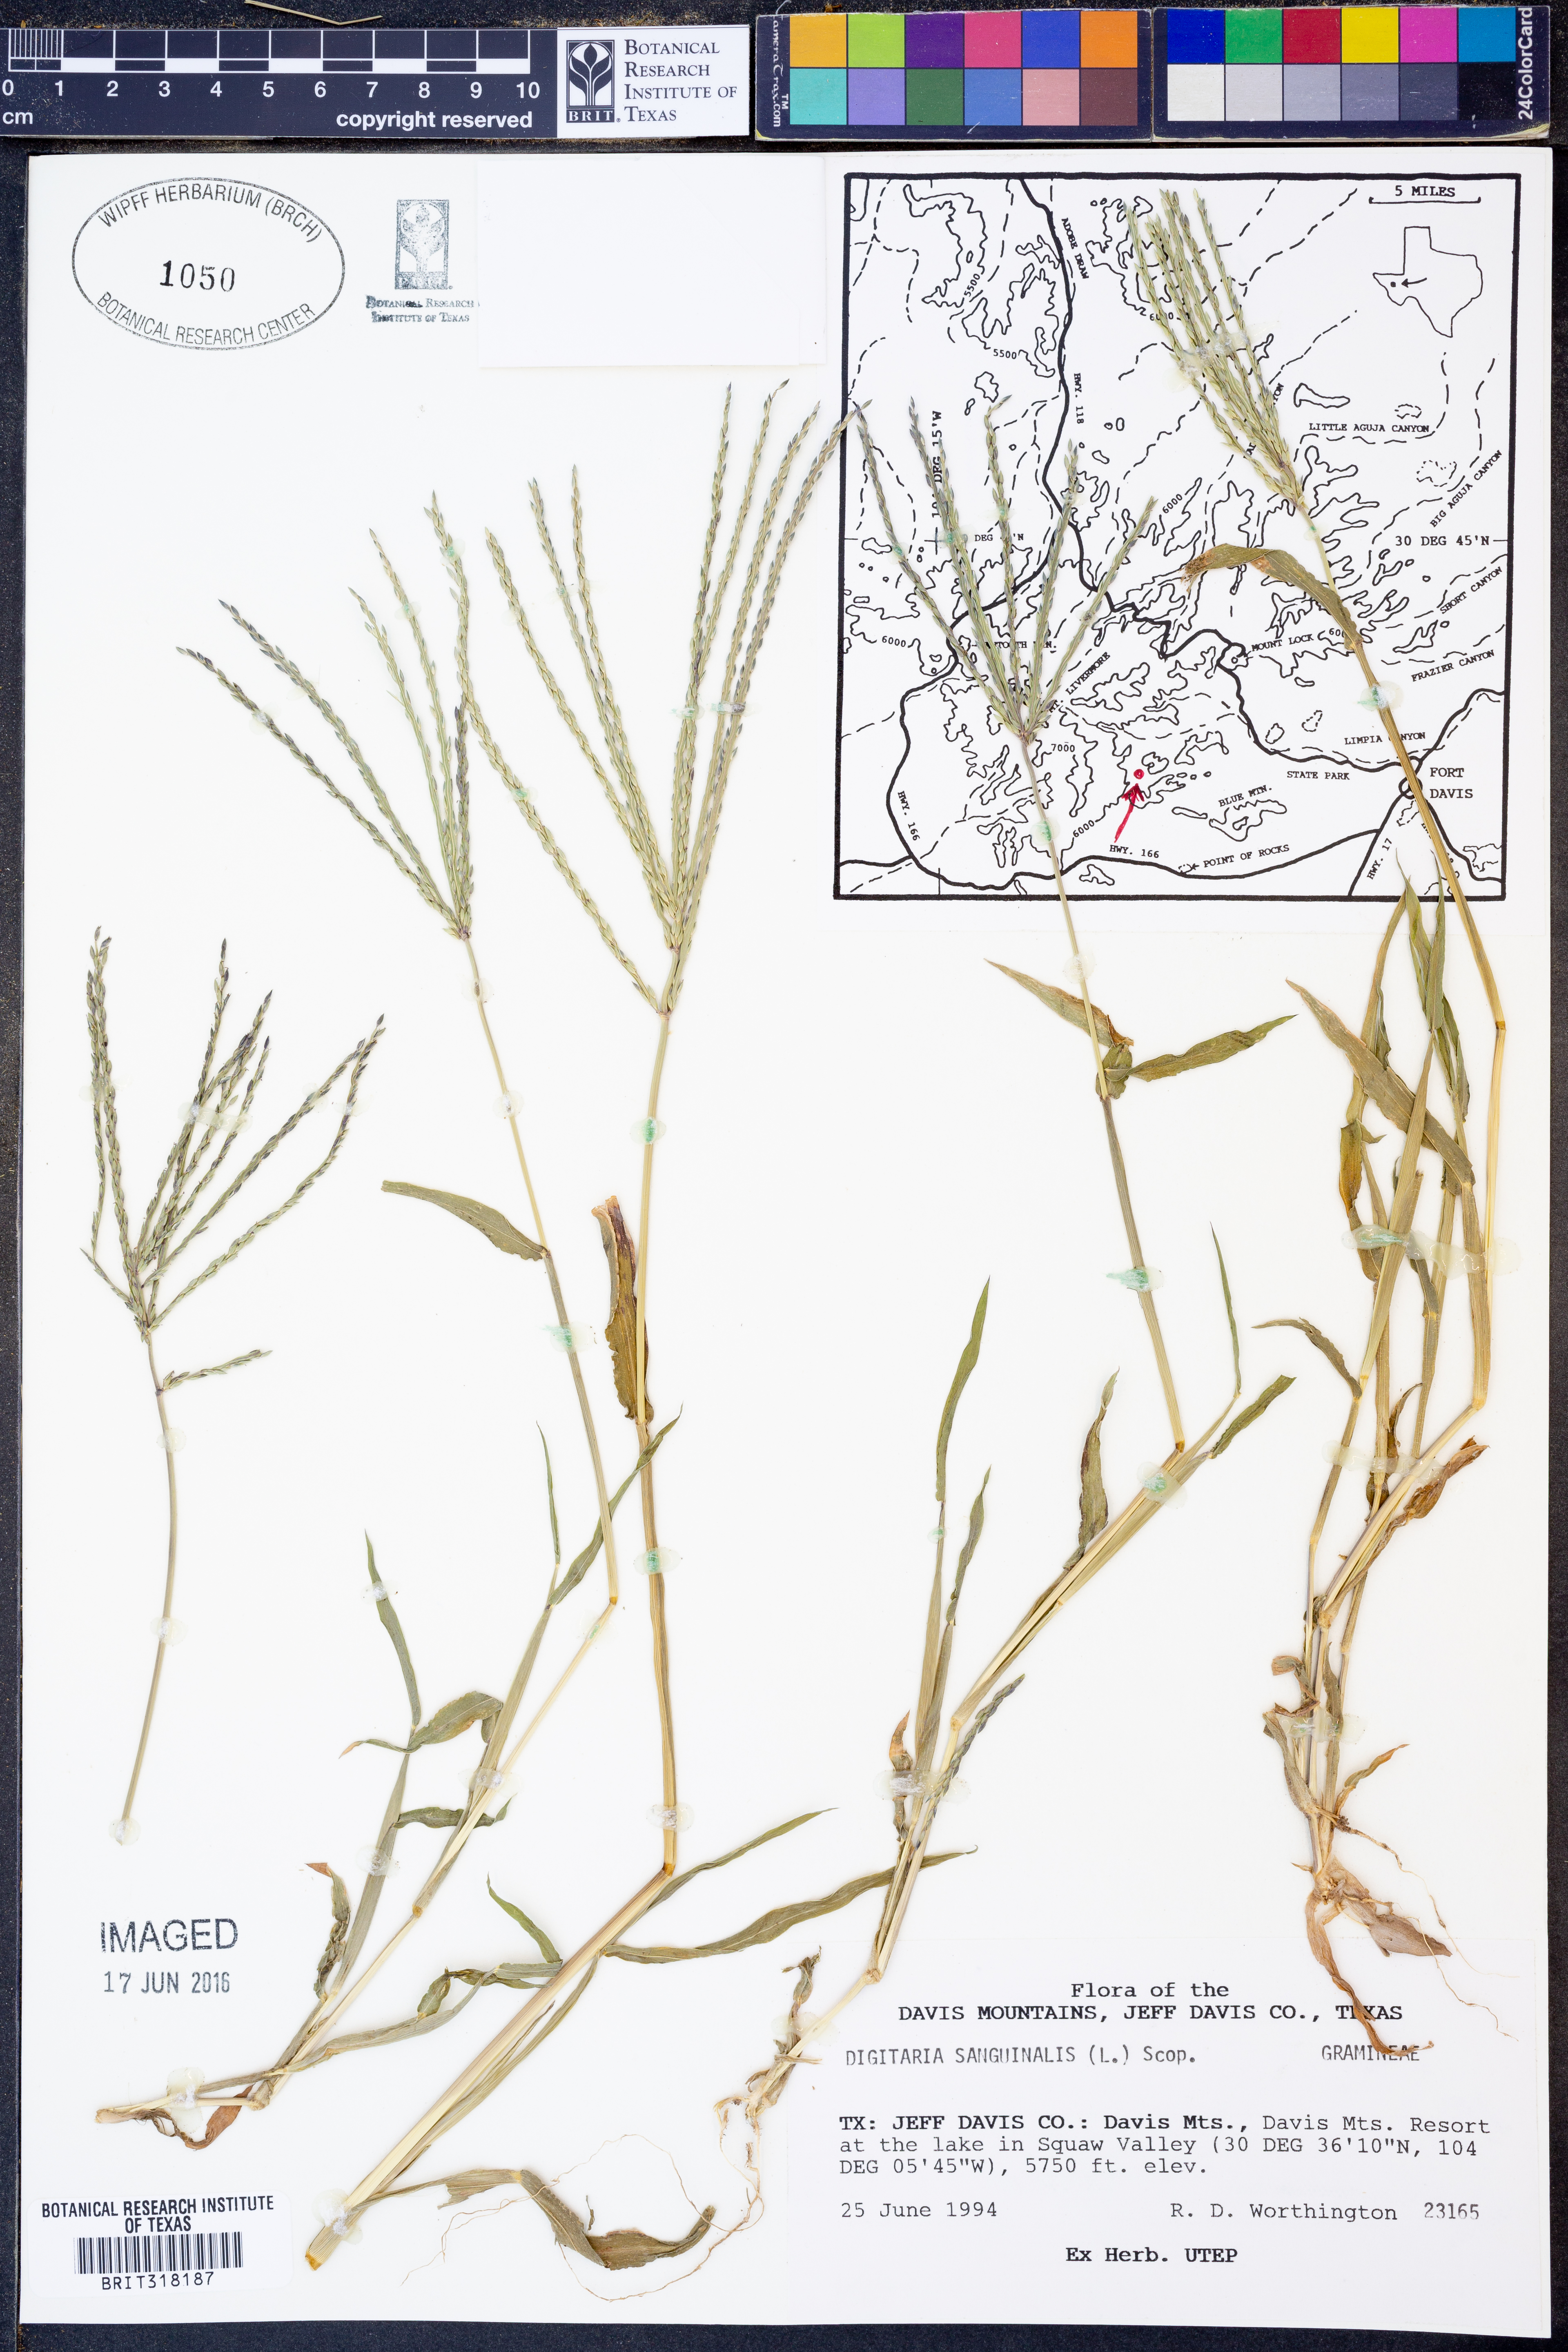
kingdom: Plantae
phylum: Tracheophyta
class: Liliopsida
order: Poales
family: Poaceae
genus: Digitaria
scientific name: Digitaria sanguinalis
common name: Hairy crabgrass
